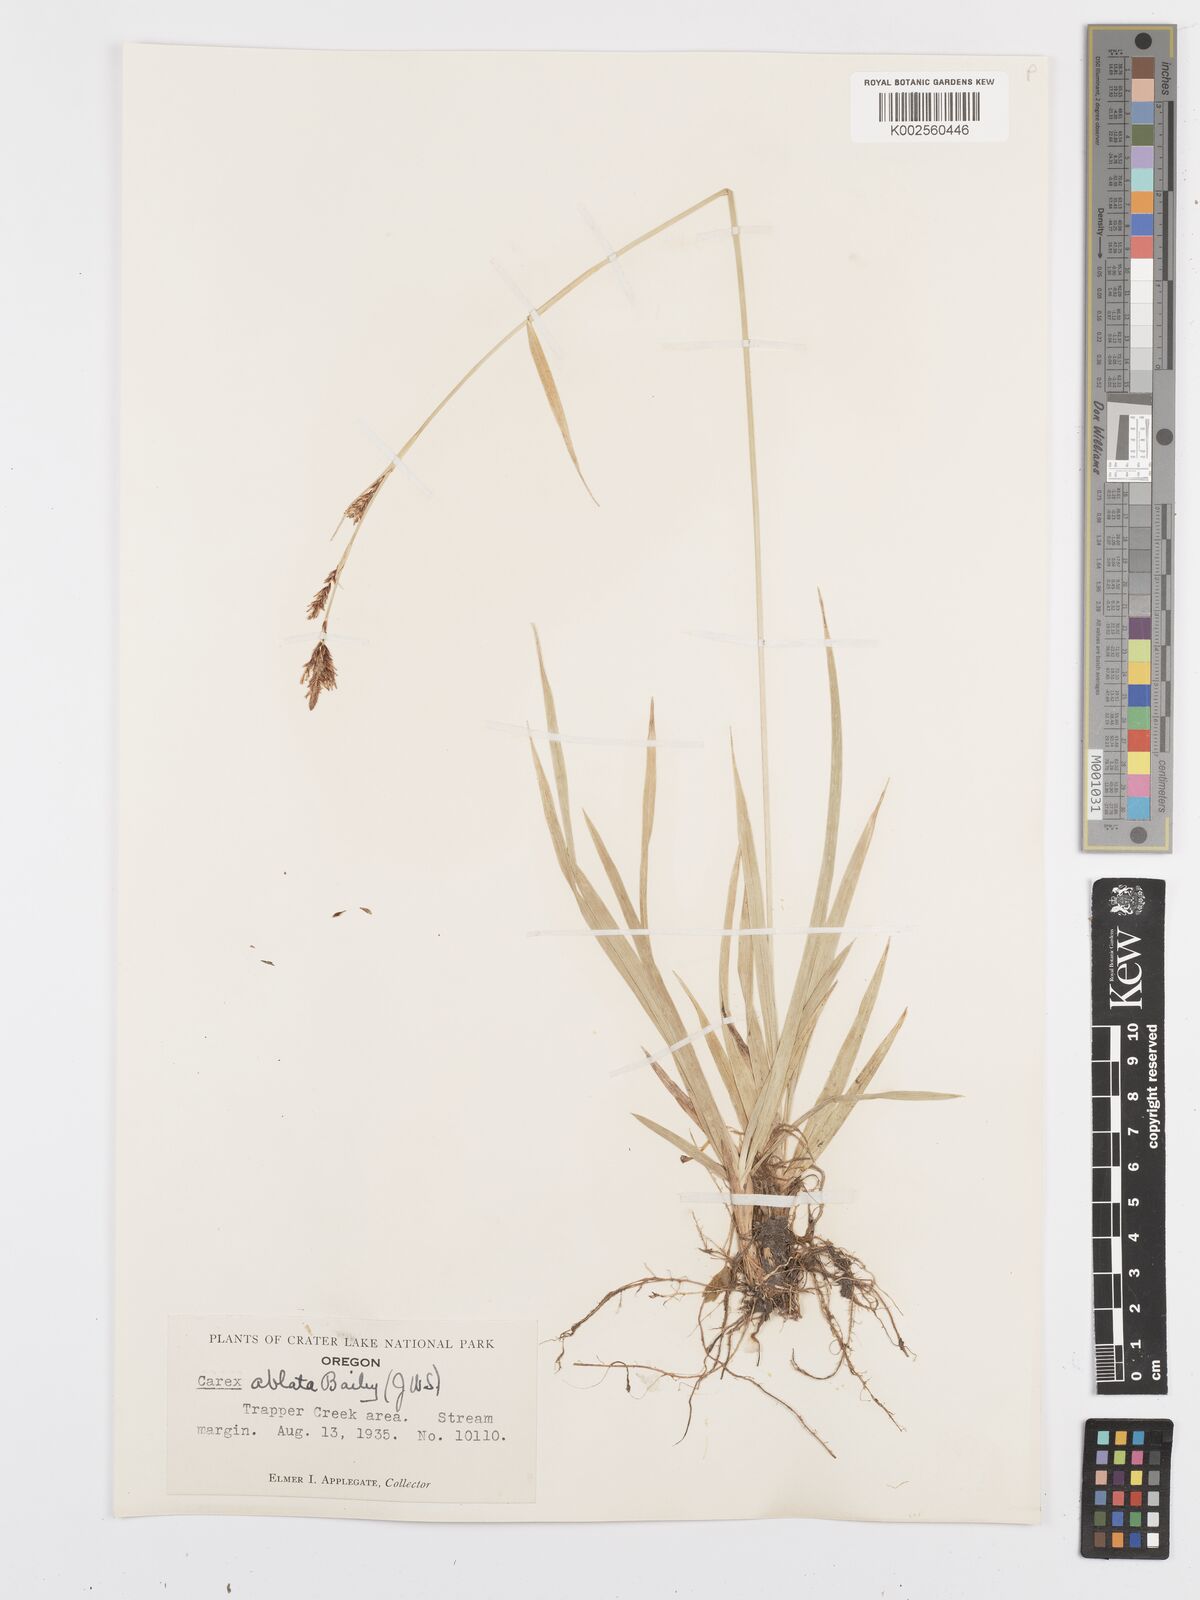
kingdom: Plantae
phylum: Tracheophyta
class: Liliopsida
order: Poales
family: Cyperaceae
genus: Carex
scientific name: Carex luzulina
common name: Spring sedge
